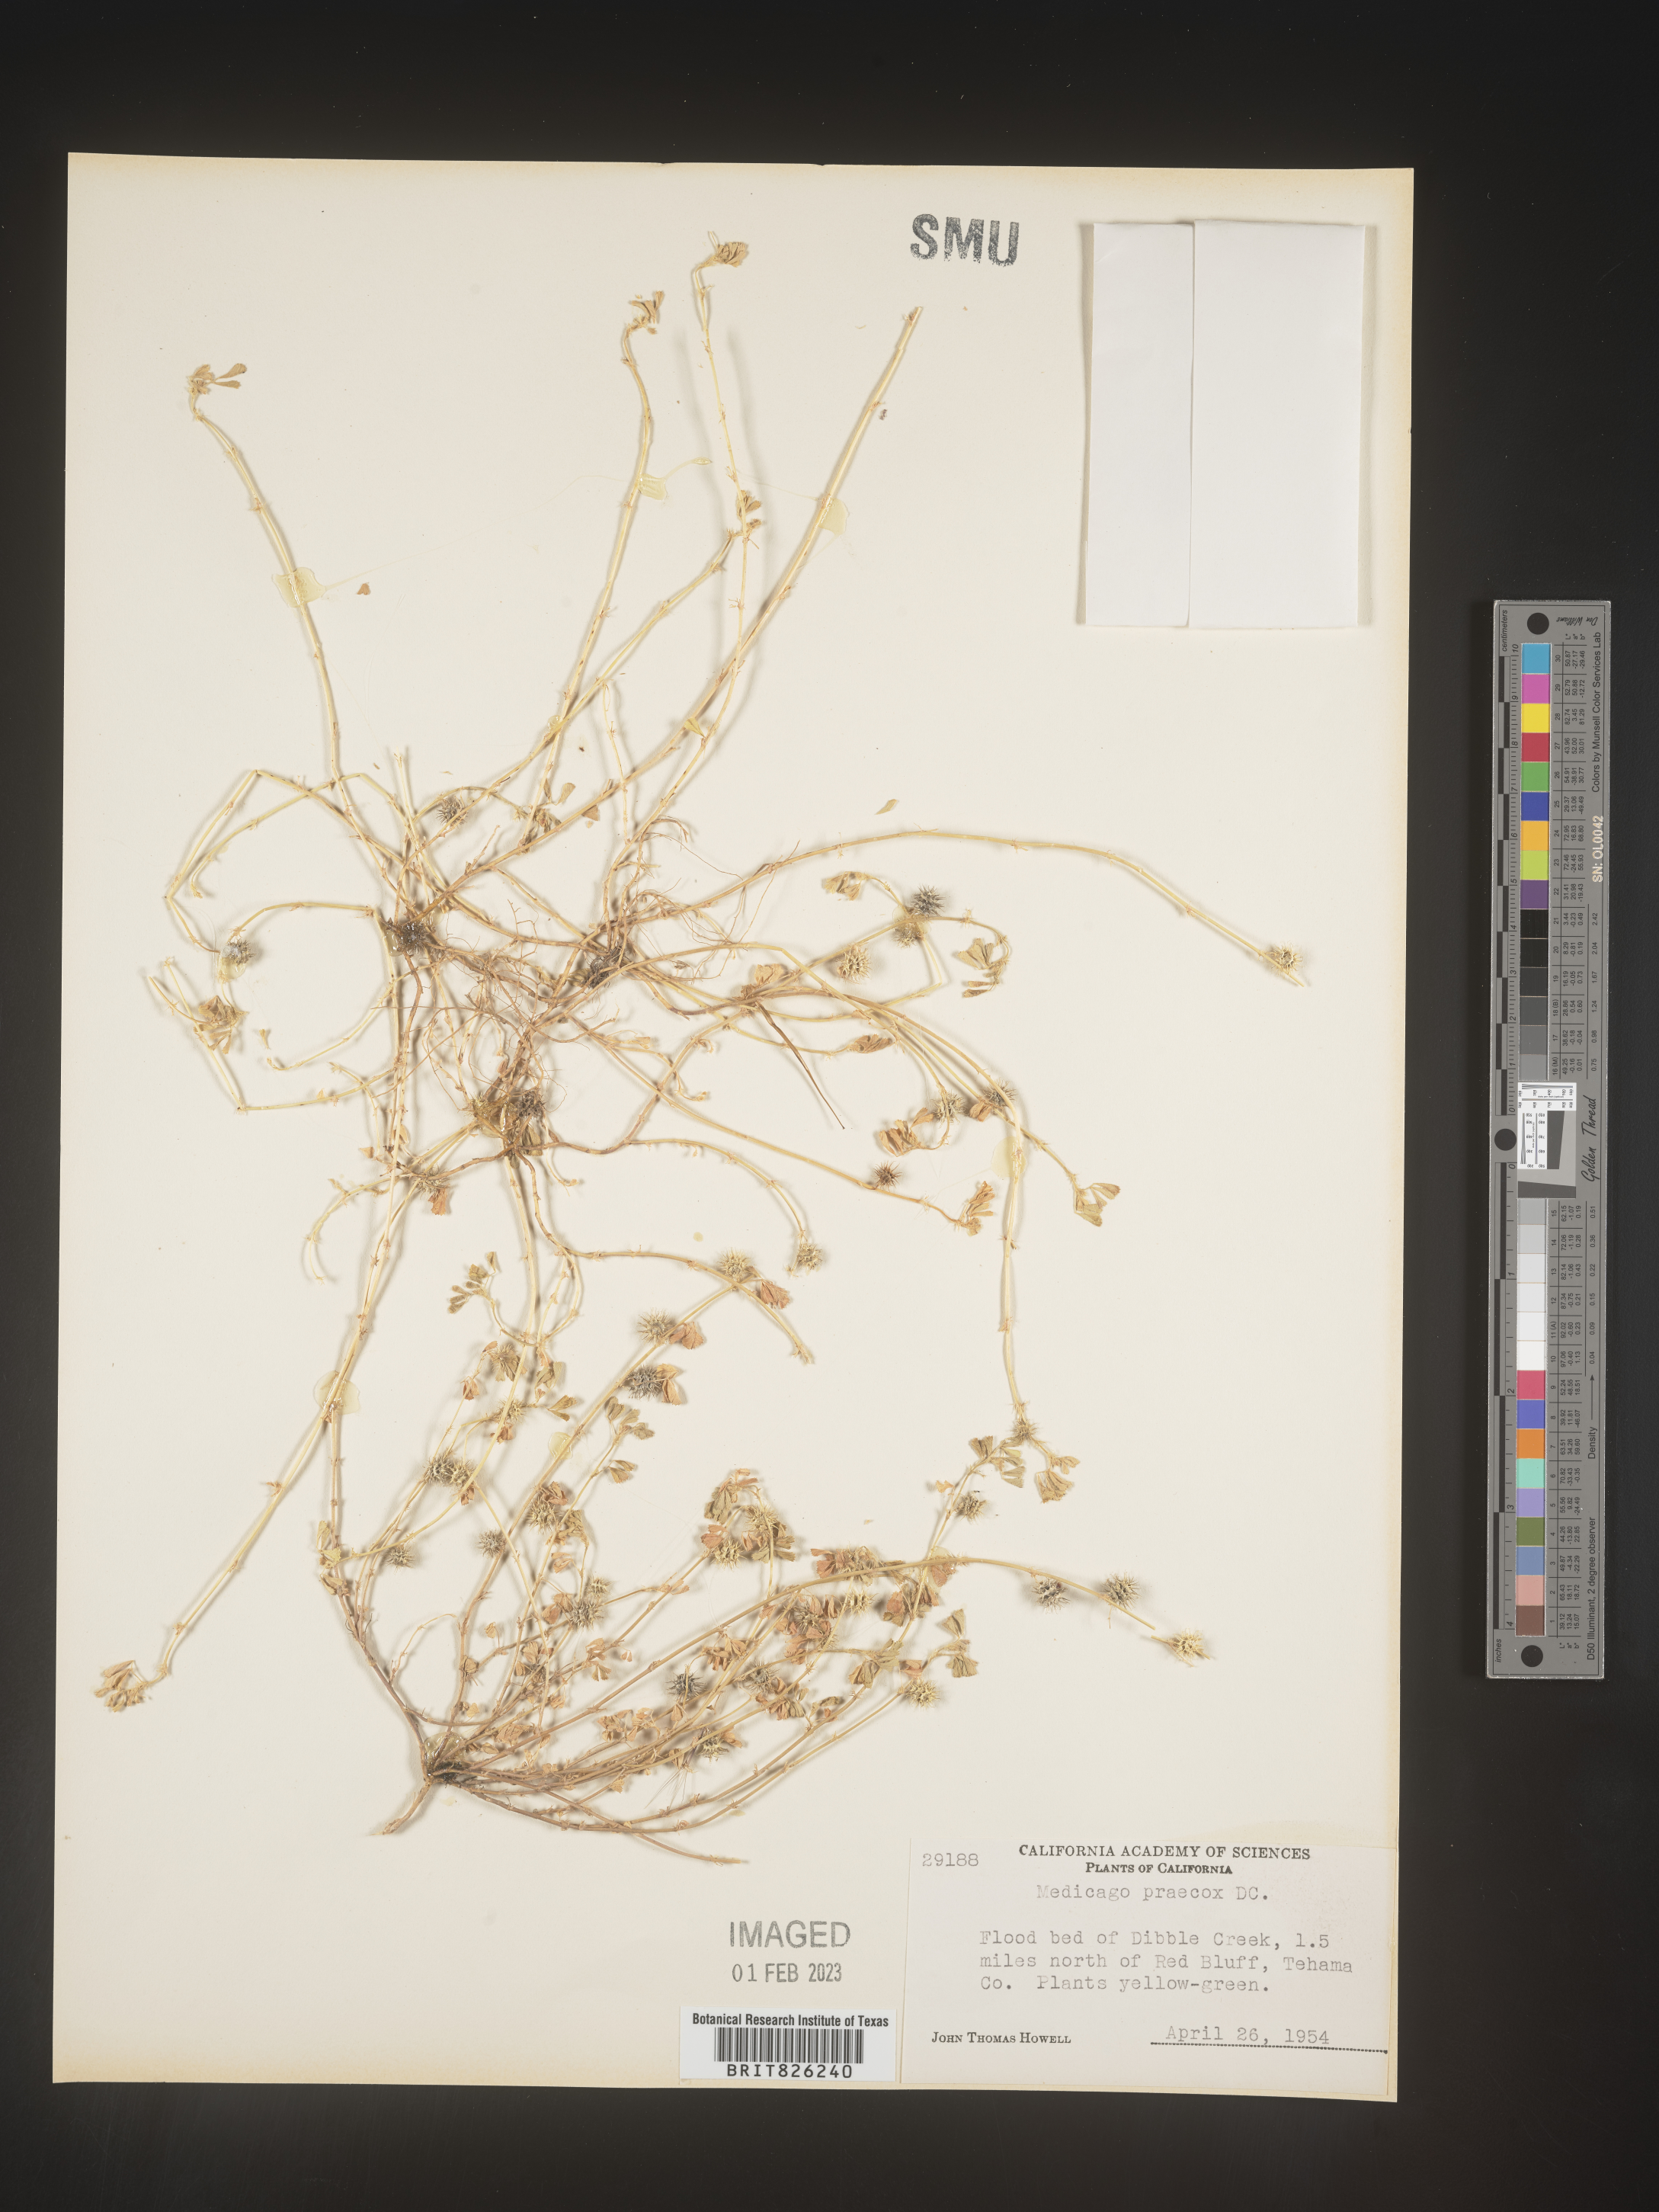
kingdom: Plantae
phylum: Tracheophyta
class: Magnoliopsida
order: Fabales
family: Fabaceae
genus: Medicago
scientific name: Medicago praecox
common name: Early medick
